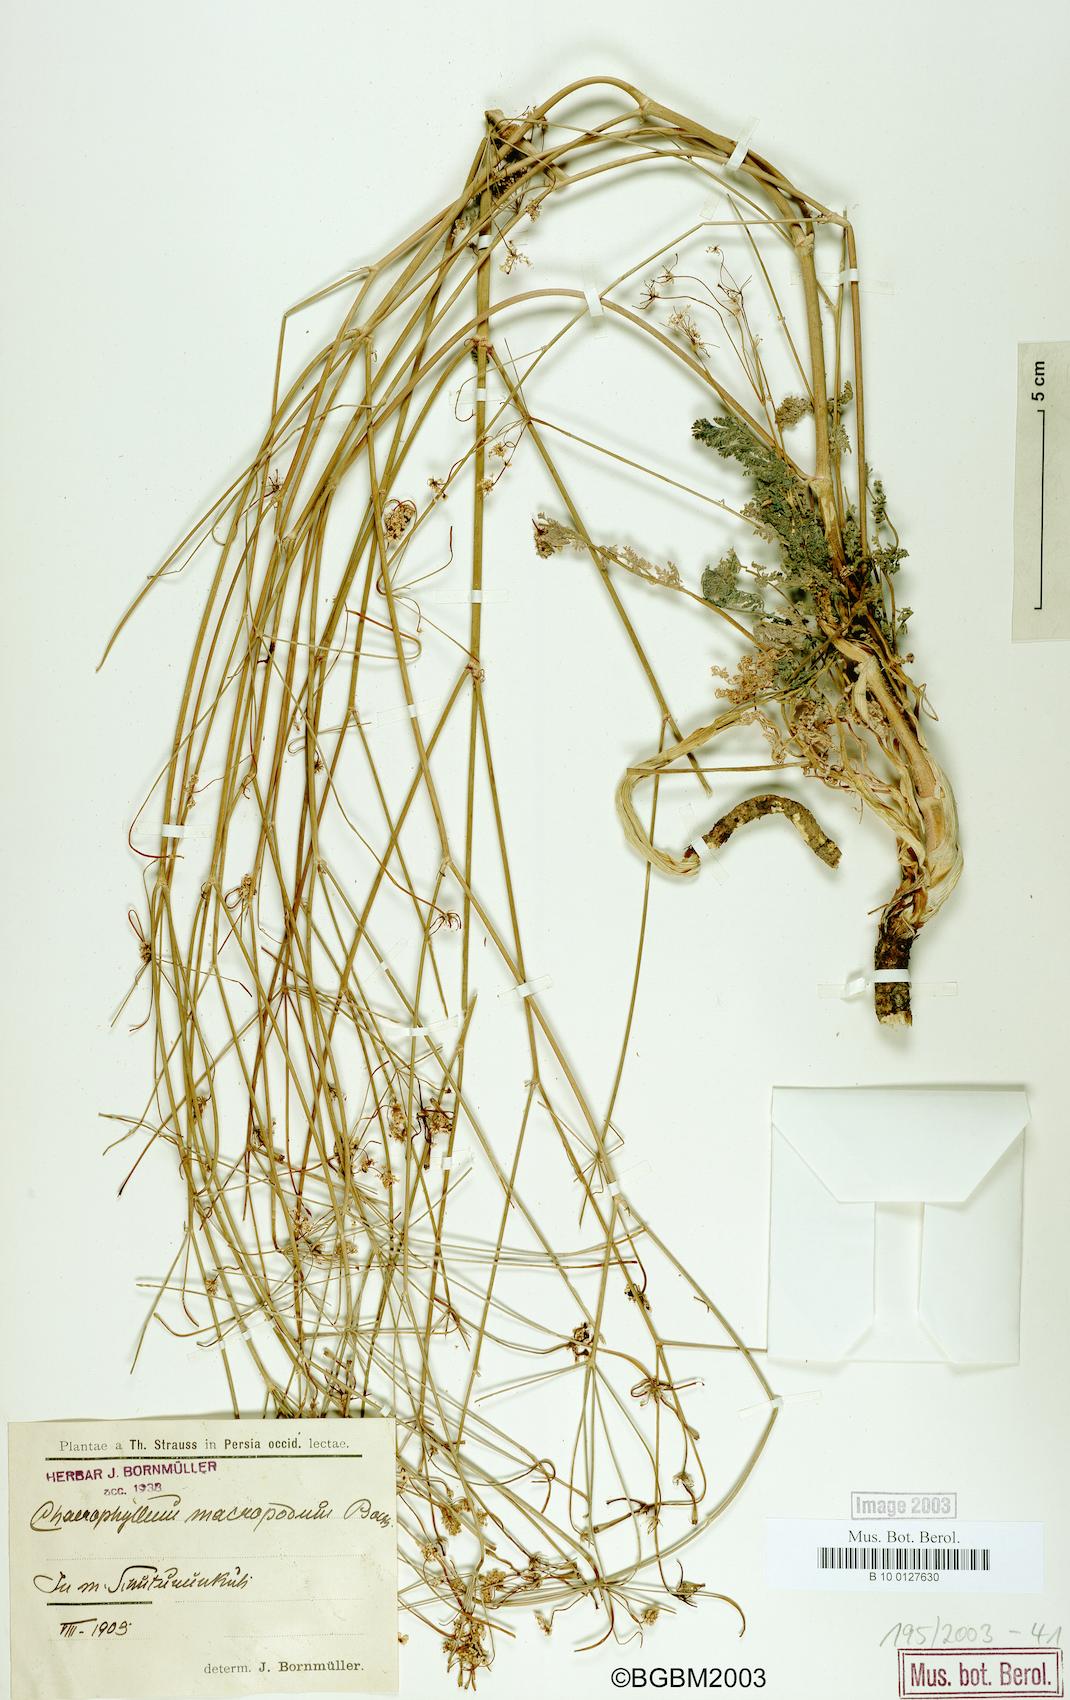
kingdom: Plantae
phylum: Tracheophyta
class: Magnoliopsida
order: Apiales
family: Apiaceae
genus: Chaerophyllum
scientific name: Chaerophyllum macropodum
